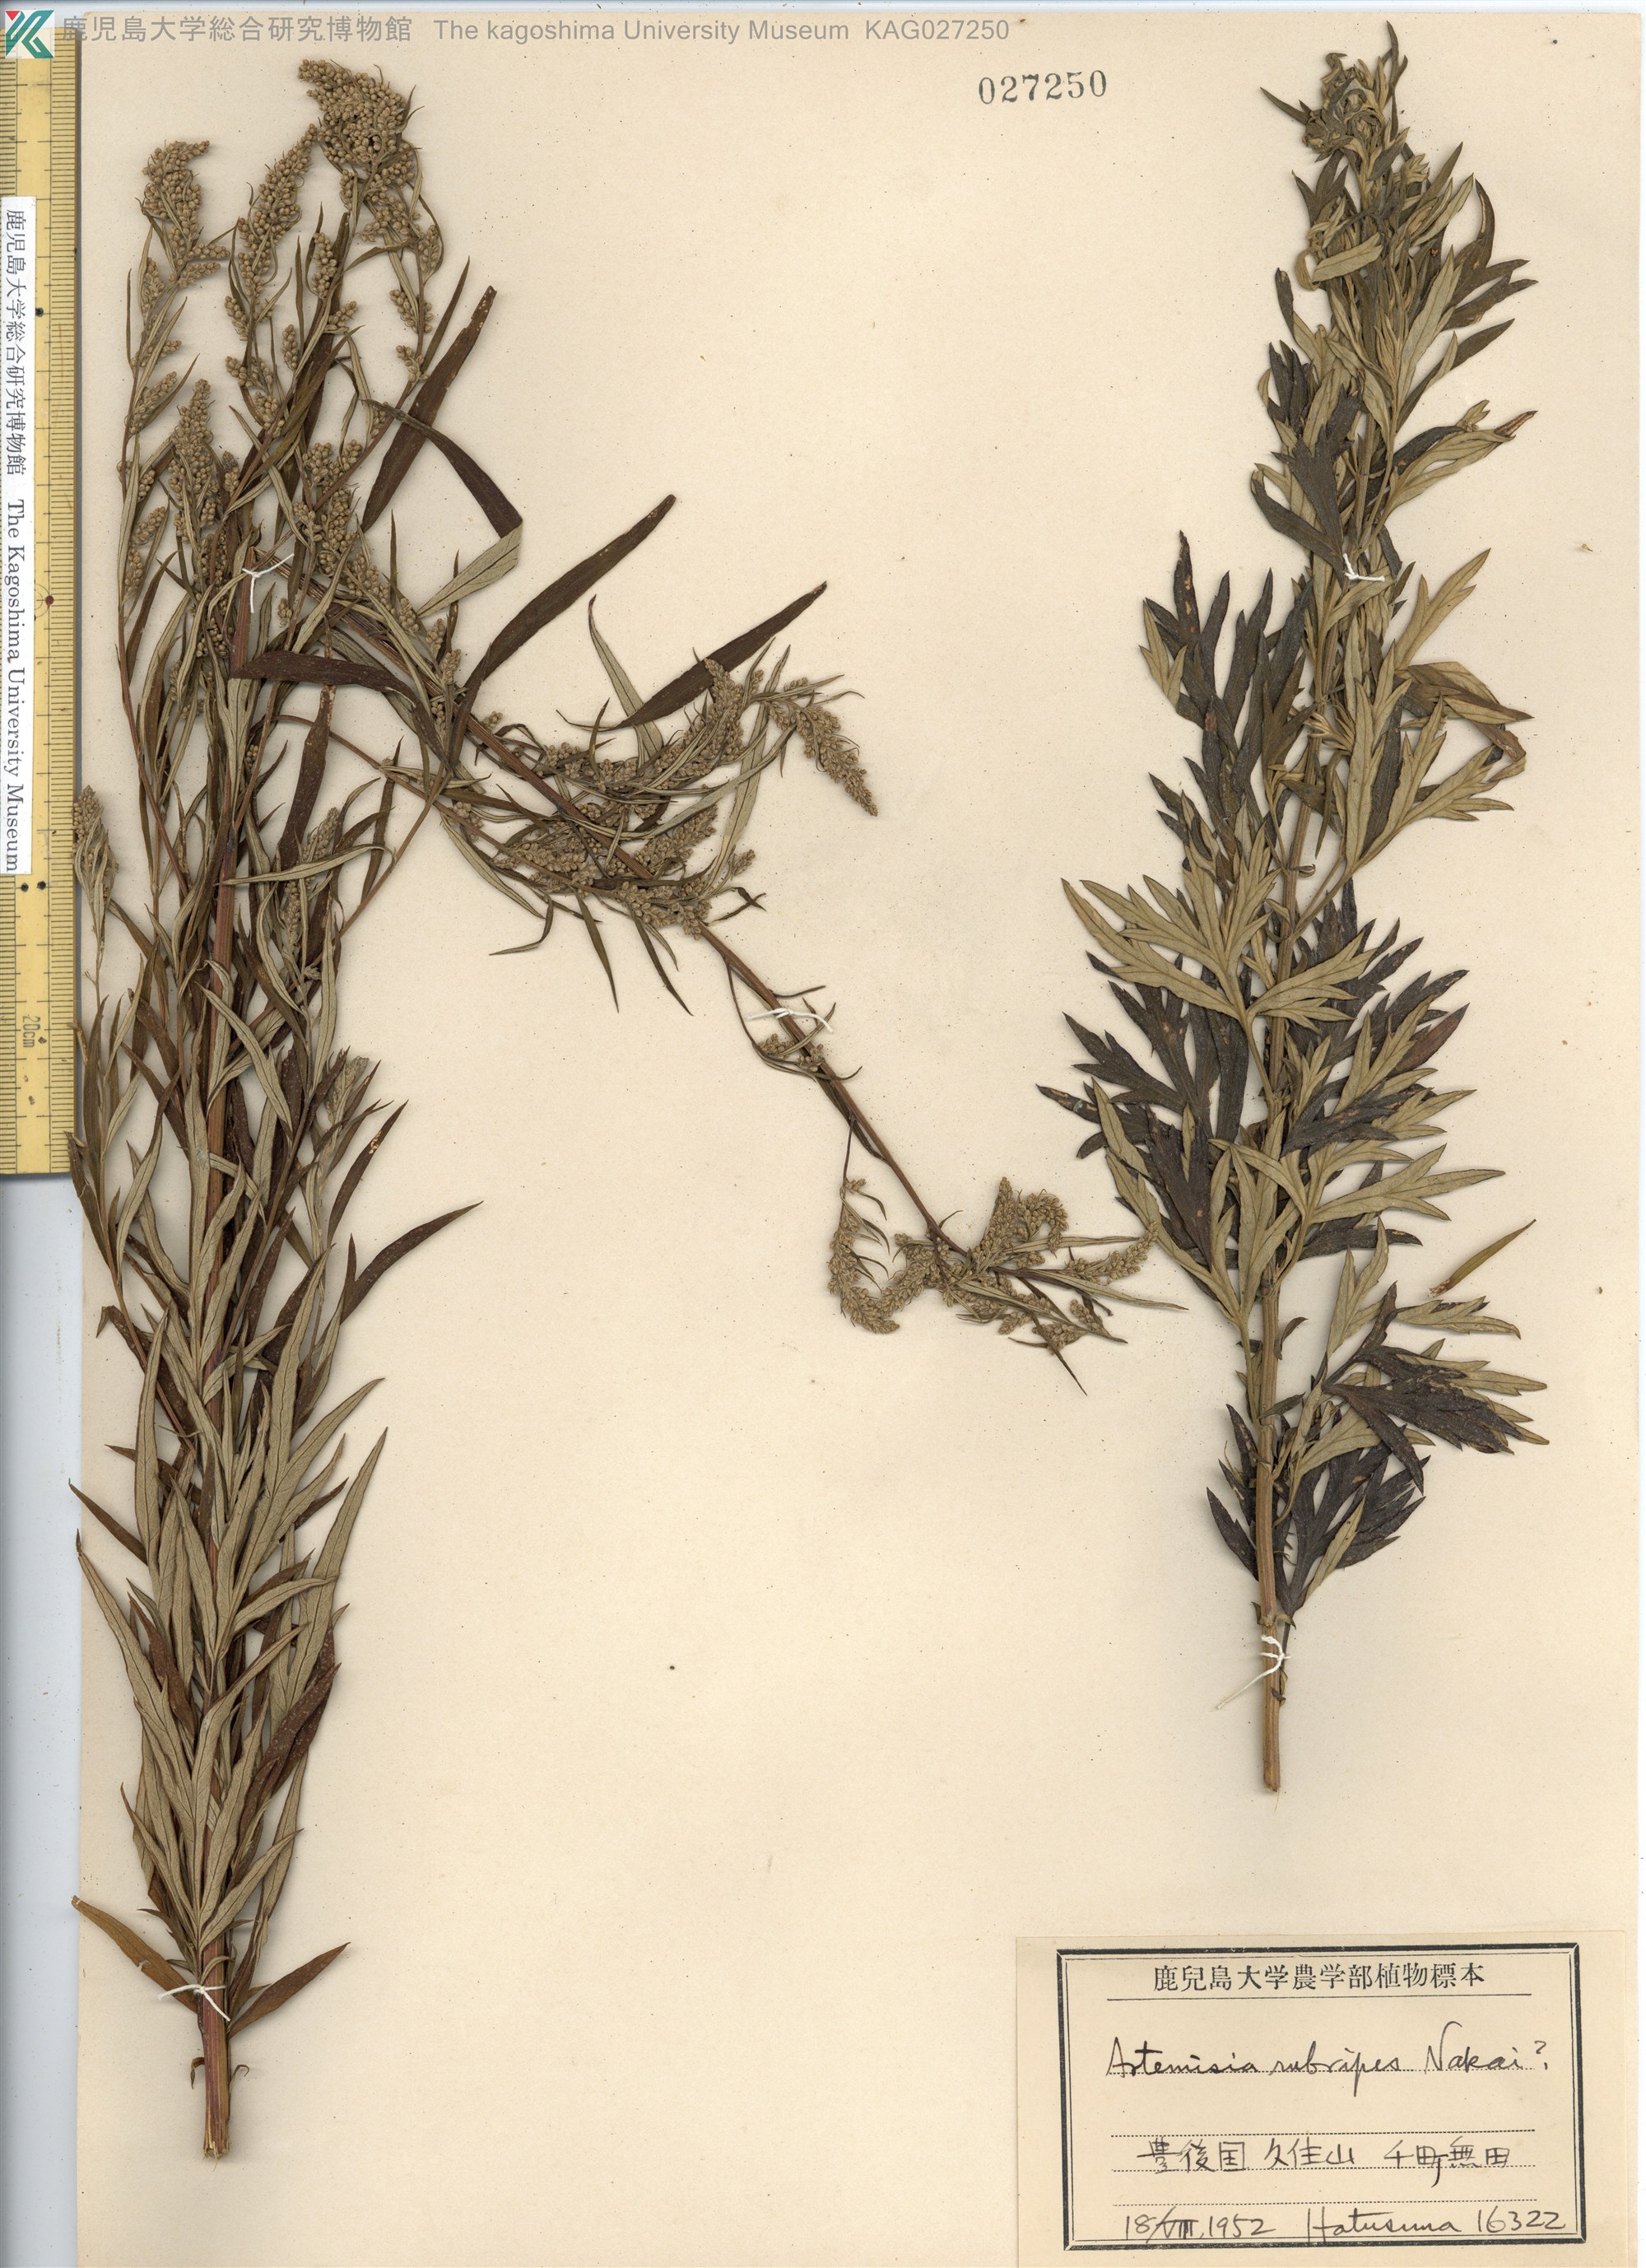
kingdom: Plantae
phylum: Tracheophyta
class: Magnoliopsida
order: Asterales
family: Asteraceae
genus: Artemisia
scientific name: Artemisia rubripes
